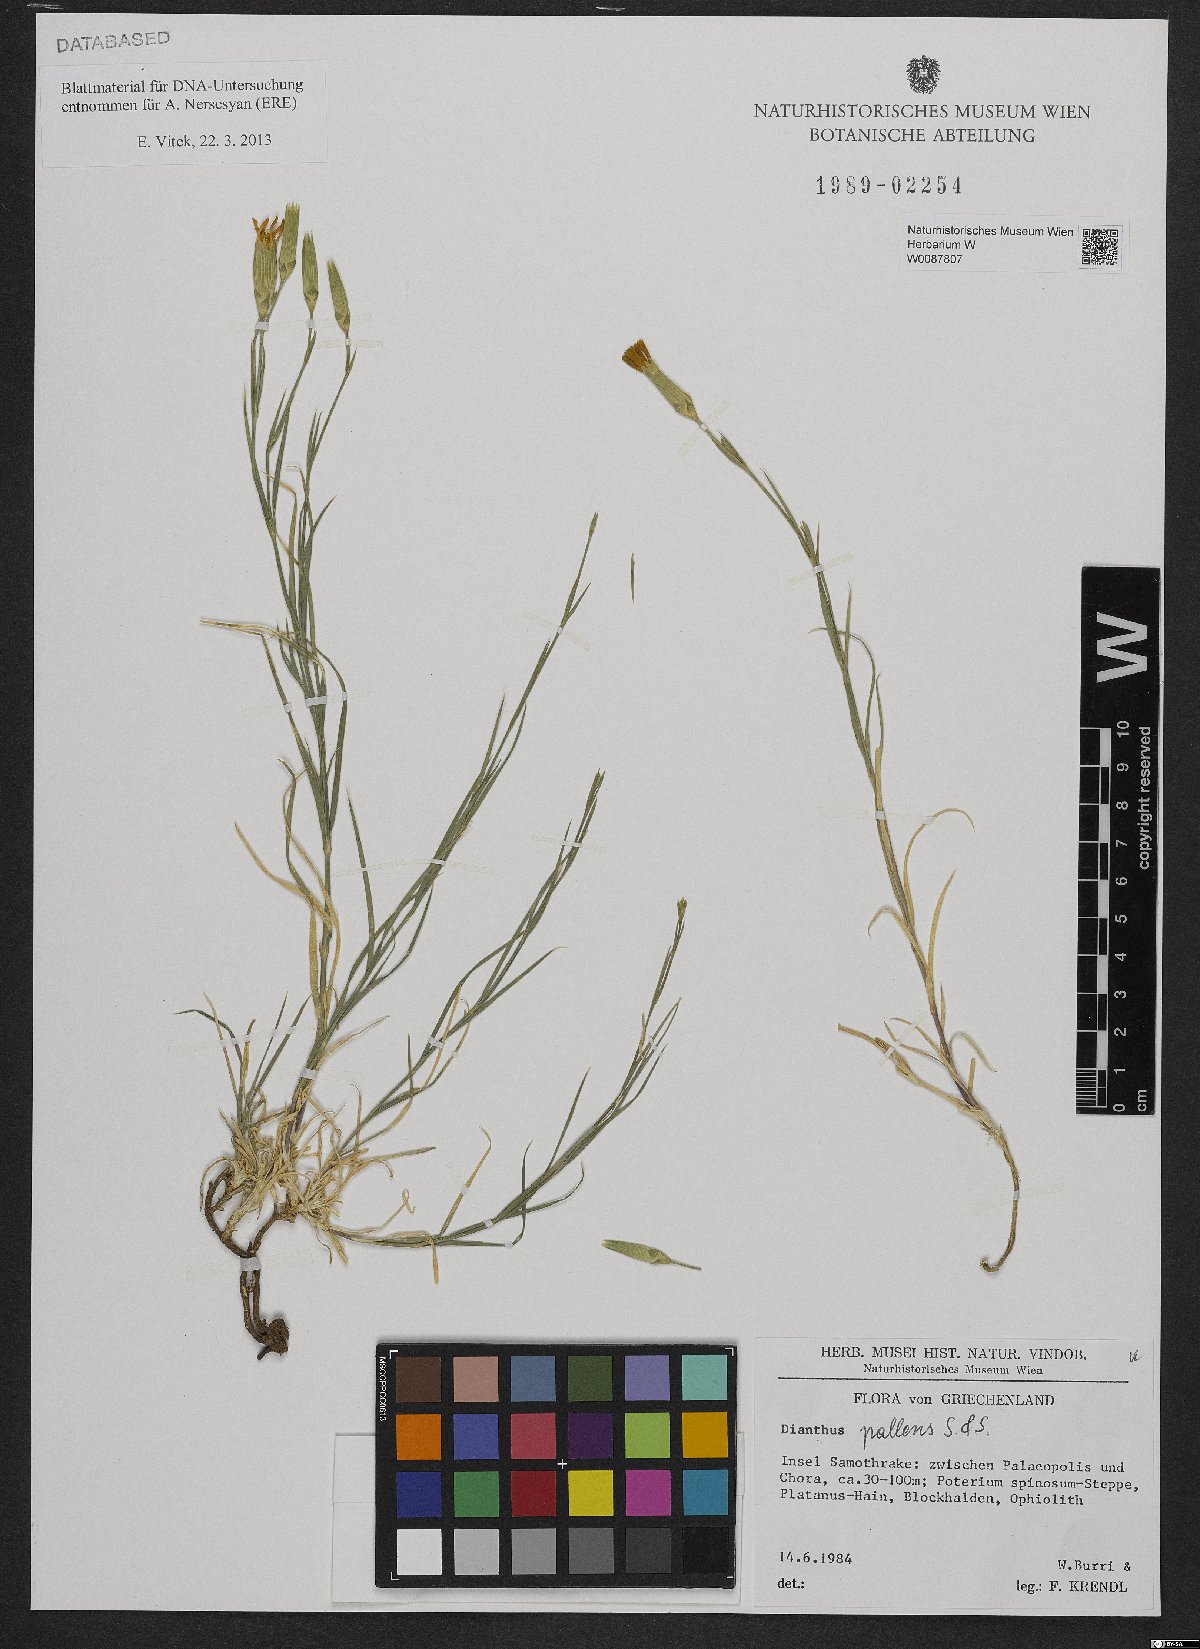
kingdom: Plantae
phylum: Tracheophyta
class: Magnoliopsida
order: Caryophyllales
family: Caryophyllaceae
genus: Dianthus
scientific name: Dianthus monadelphus
